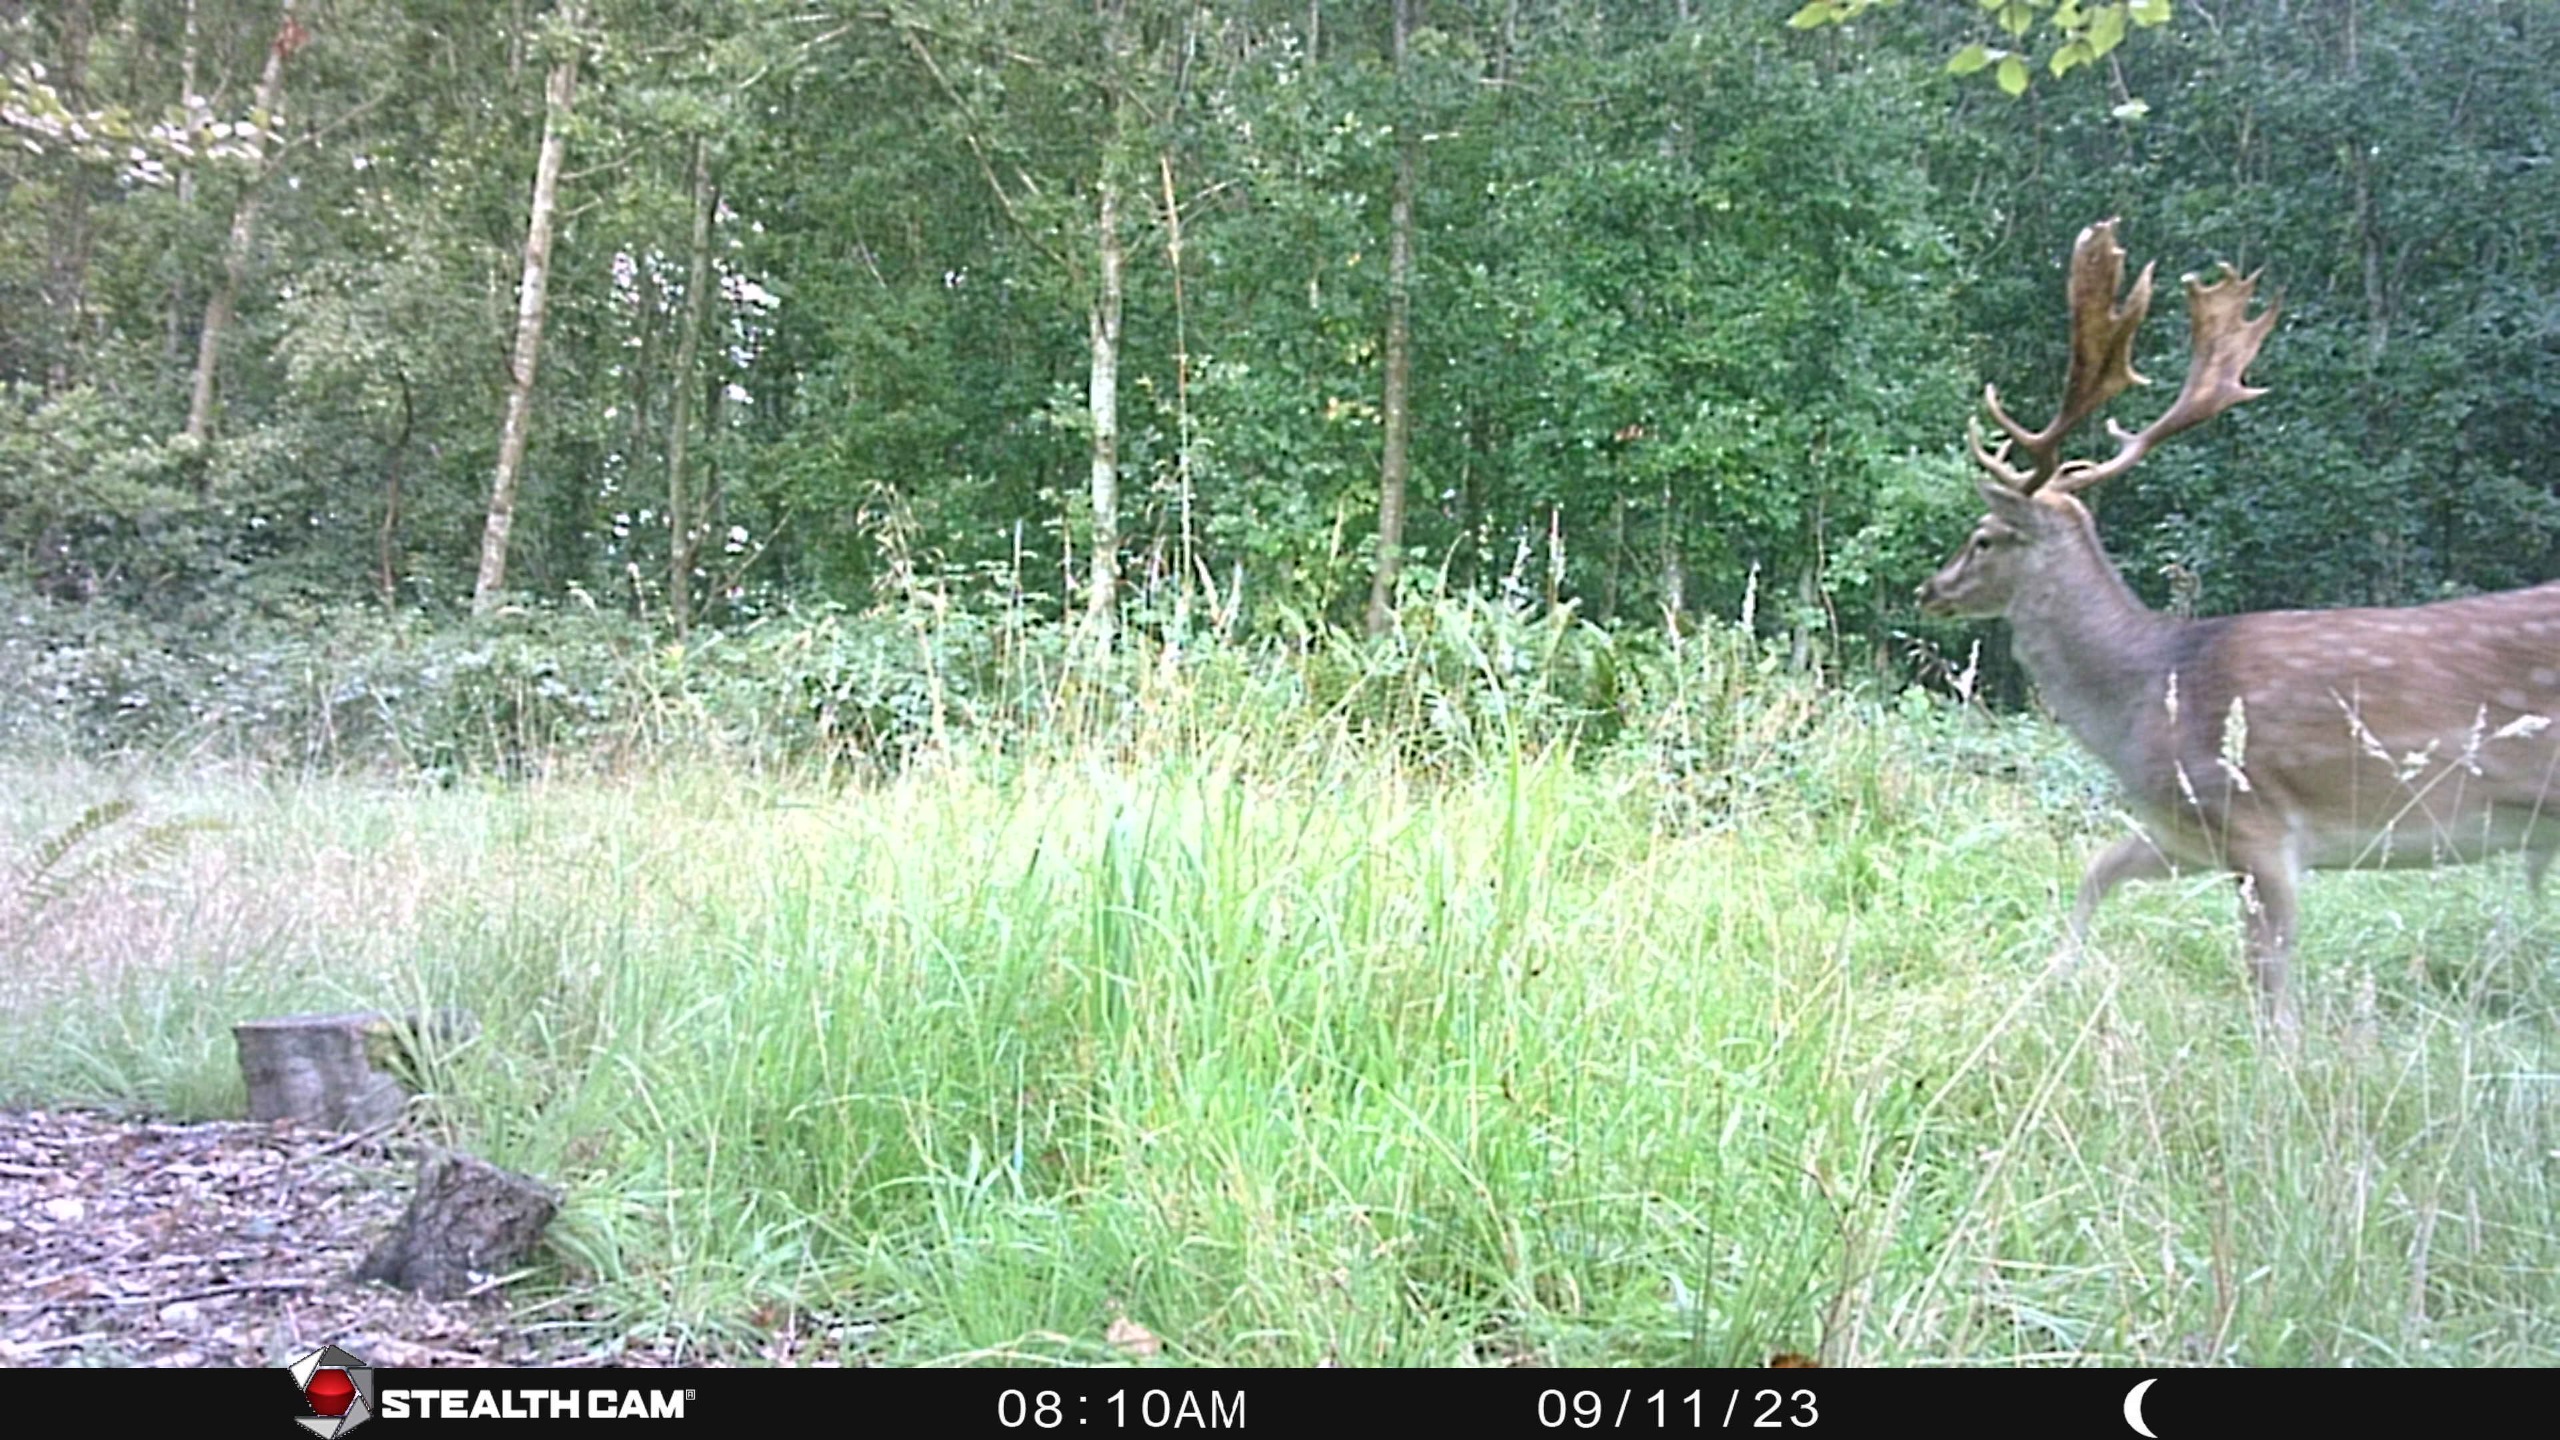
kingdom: Animalia
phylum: Chordata
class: Mammalia
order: Artiodactyla
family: Cervidae
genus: Dama
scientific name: Dama dama
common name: Dådyr
